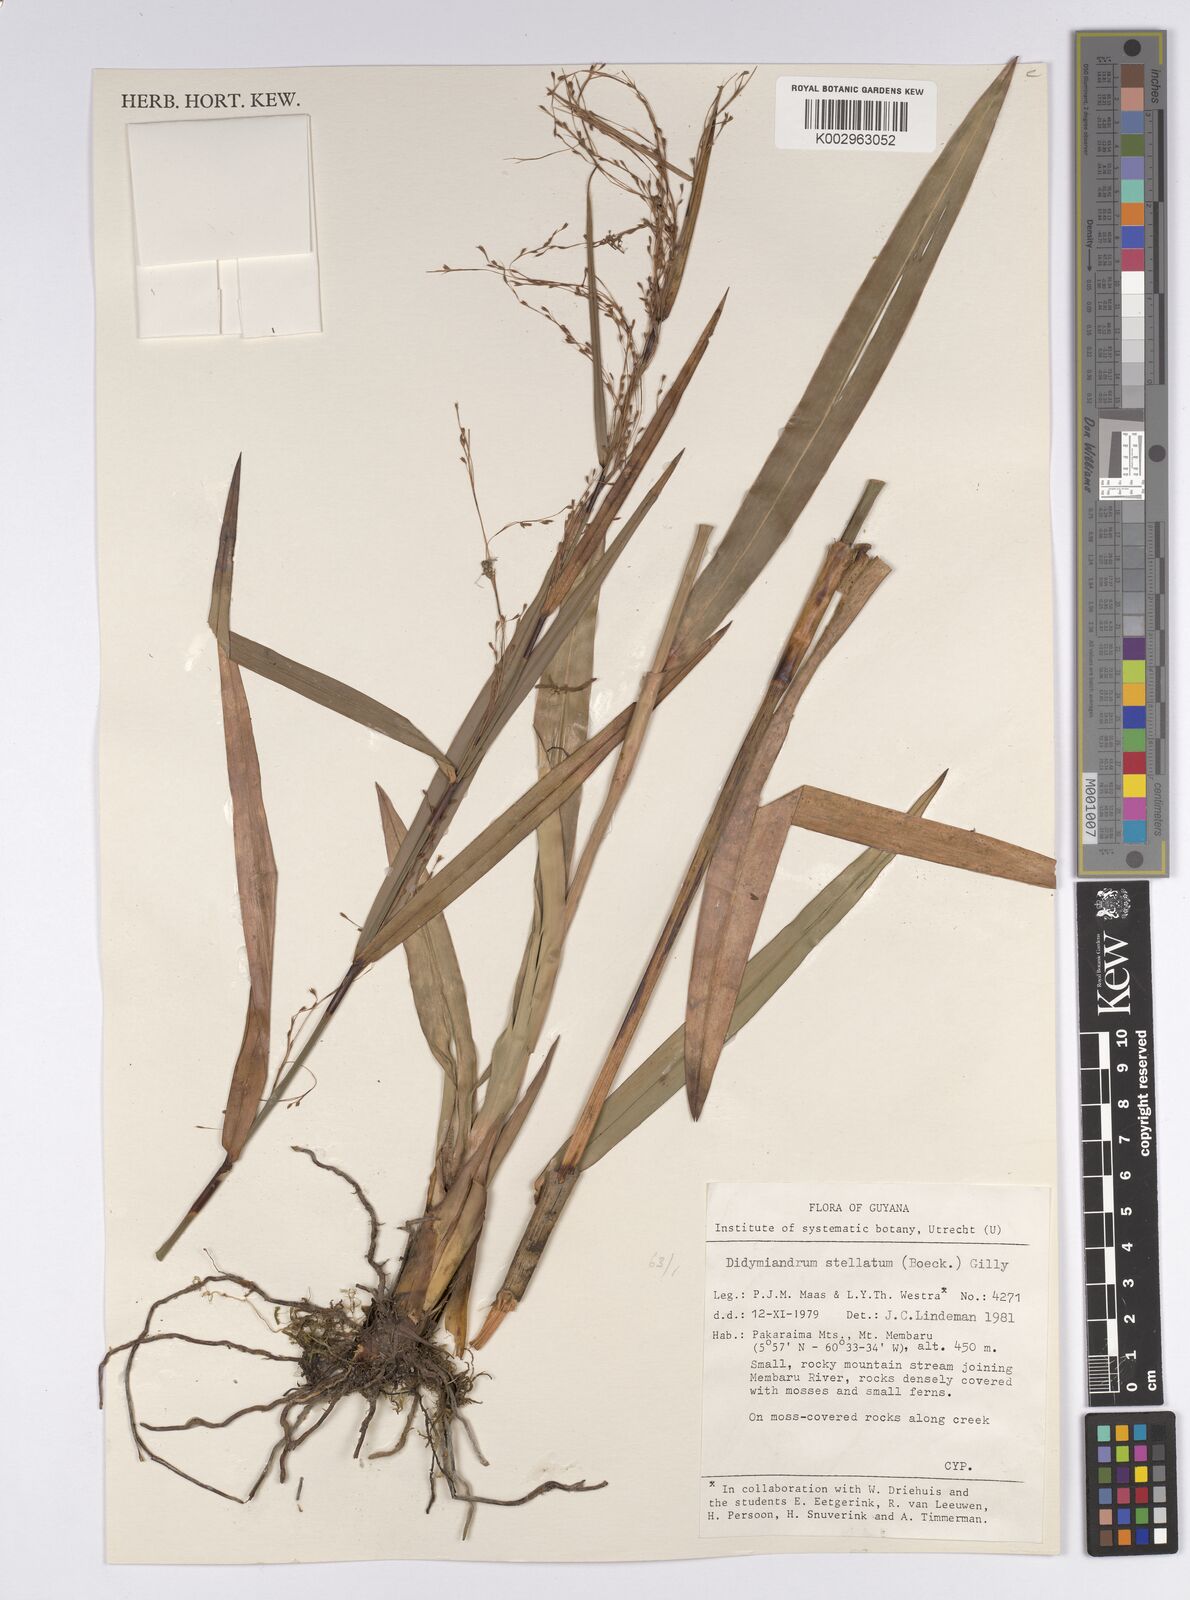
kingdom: Plantae
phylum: Tracheophyta
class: Liliopsida
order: Poales
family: Cyperaceae
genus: Didymiandrum
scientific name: Didymiandrum stellatum
